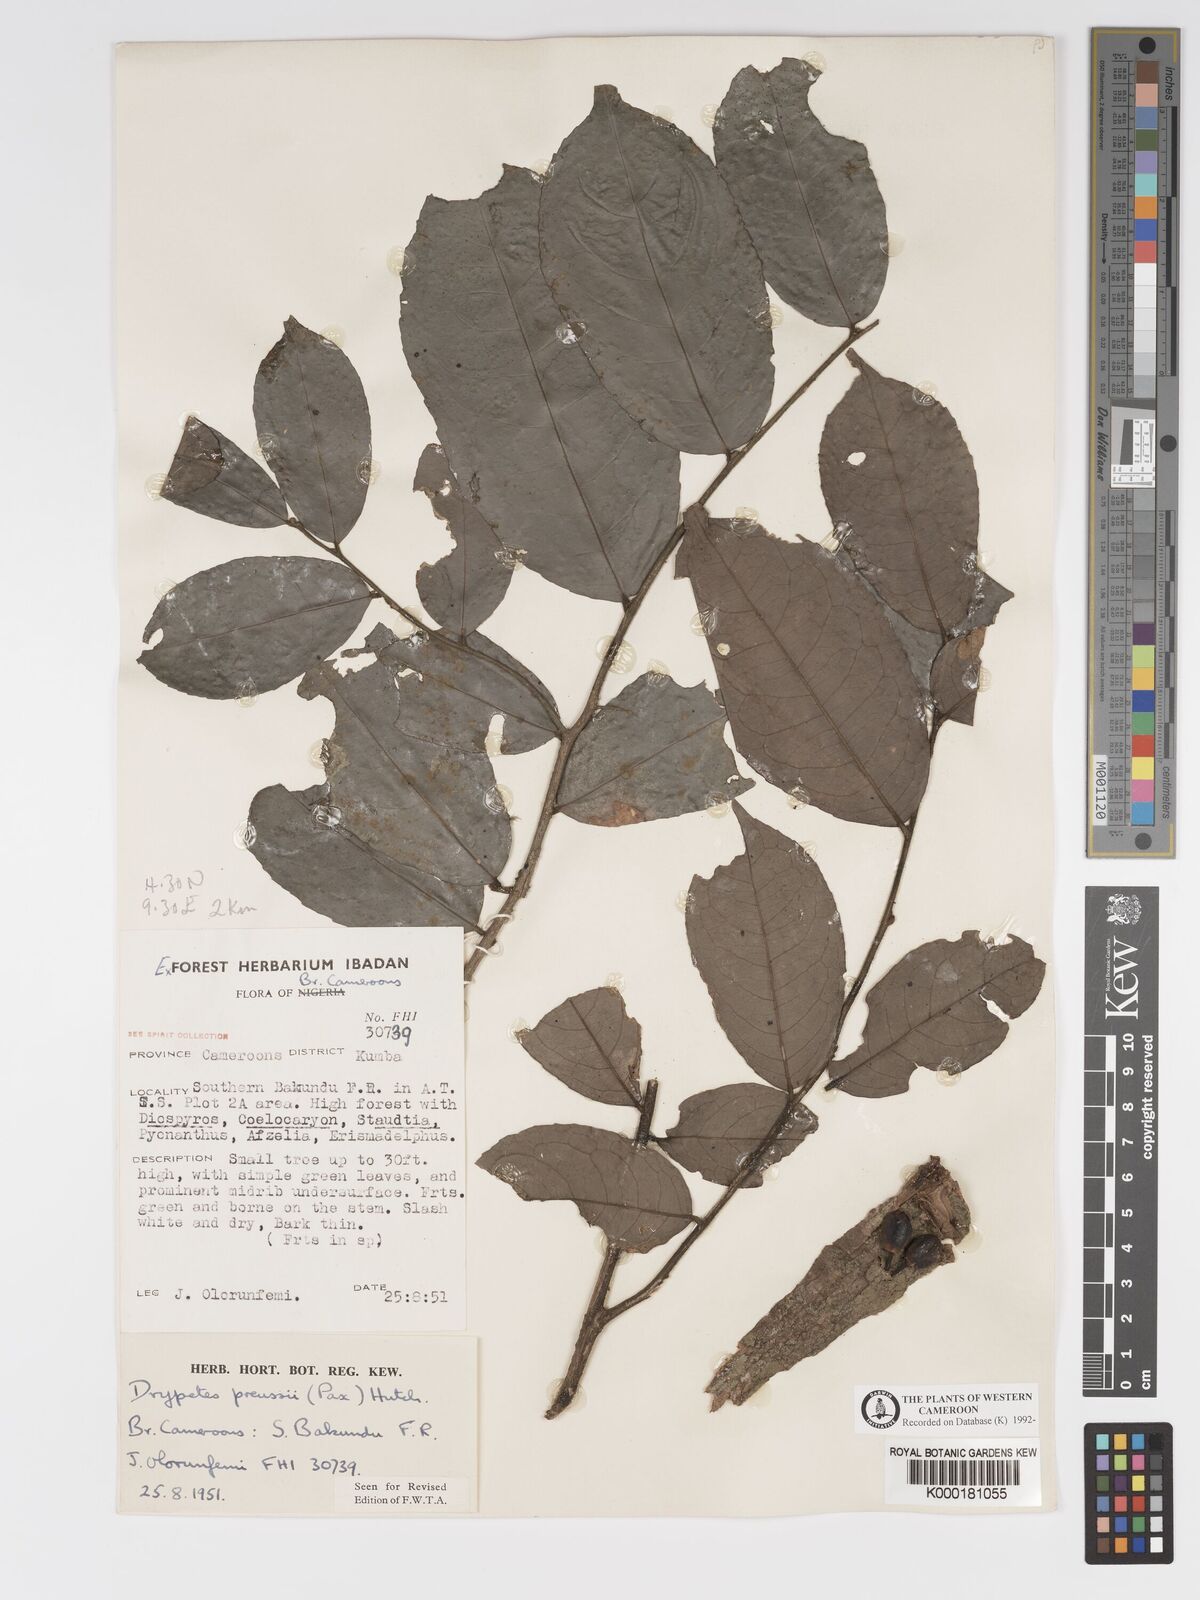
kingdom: Plantae
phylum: Tracheophyta
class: Magnoliopsida
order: Malpighiales
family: Putranjivaceae
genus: Drypetes
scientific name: Drypetes preussii
